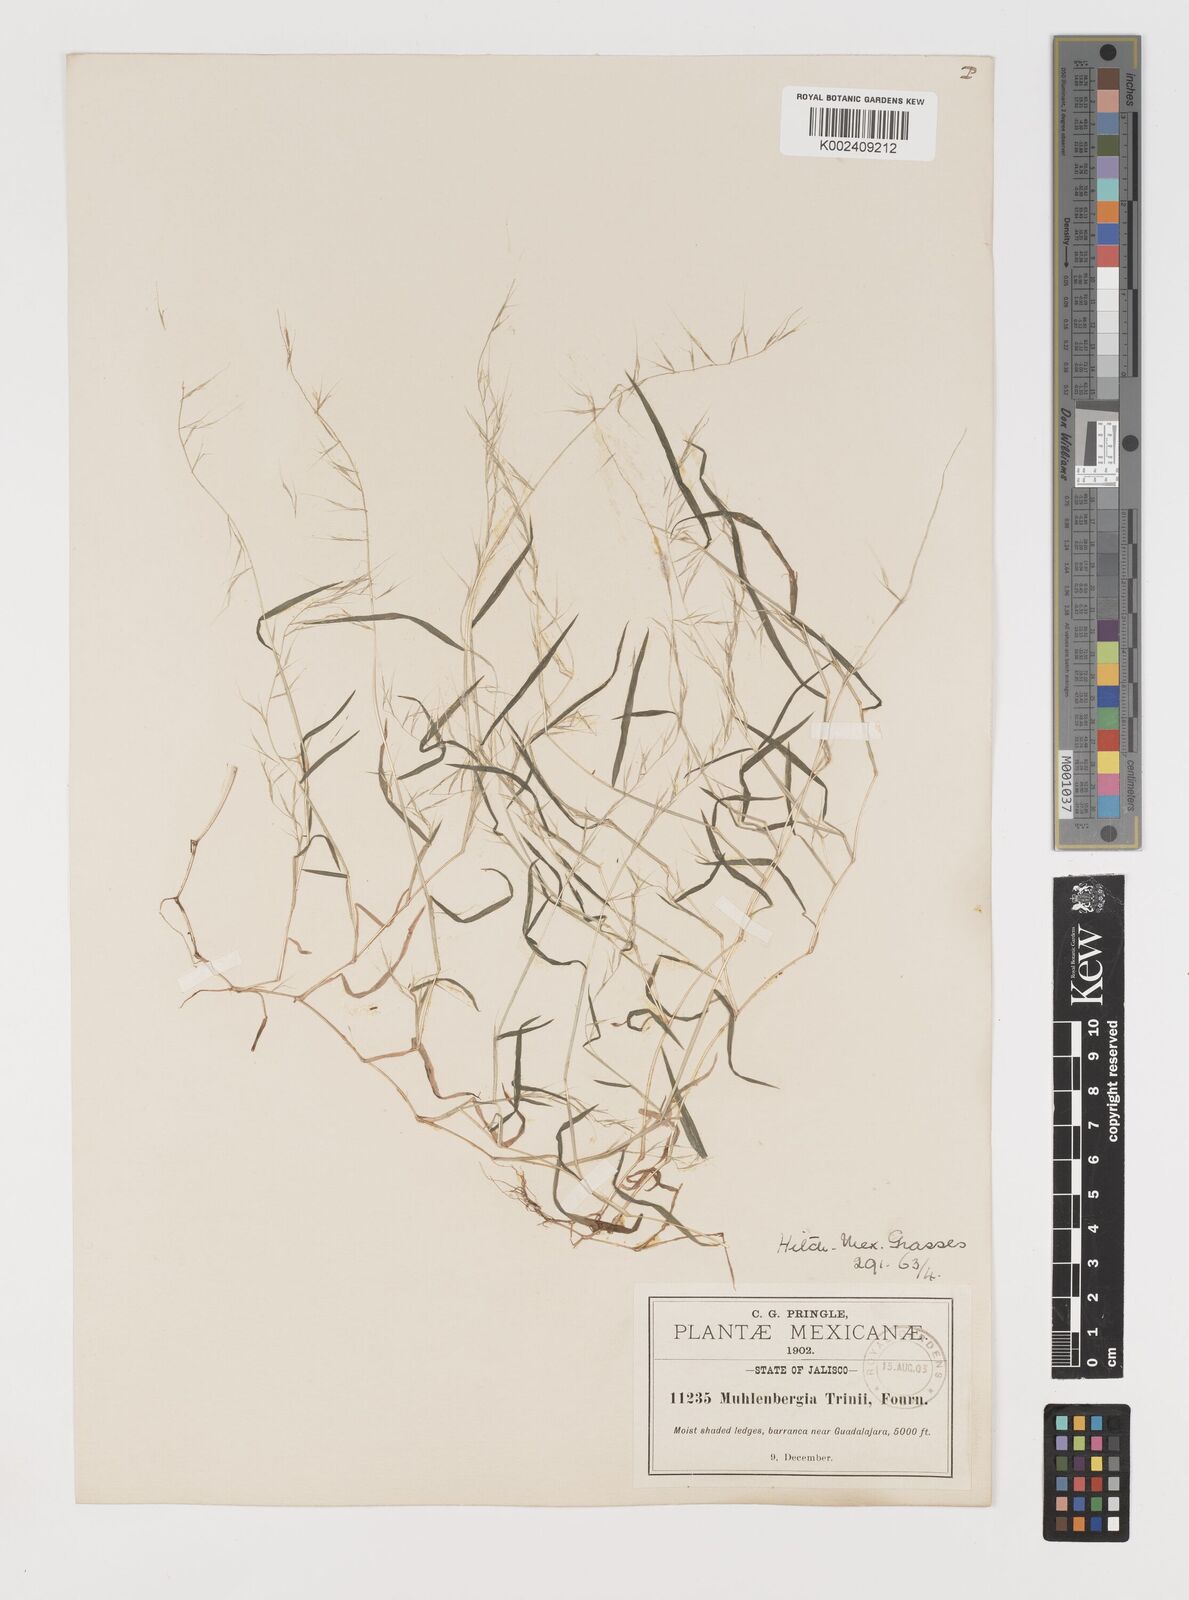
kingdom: Plantae
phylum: Tracheophyta
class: Liliopsida
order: Poales
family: Poaceae
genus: Muhlenbergia
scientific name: Muhlenbergia diversiglumis
